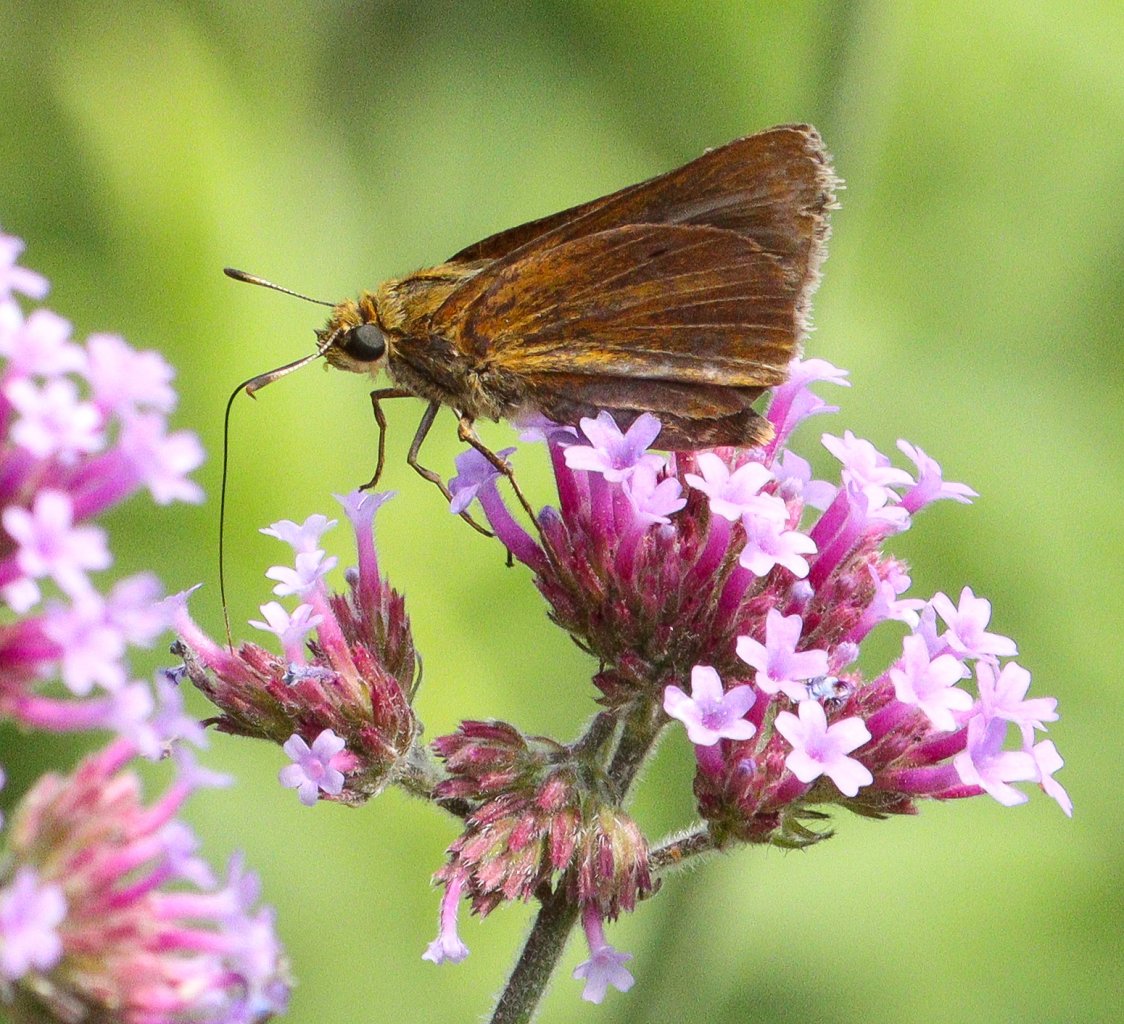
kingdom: Animalia
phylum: Arthropoda
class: Insecta
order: Lepidoptera
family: Hesperiidae
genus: Euphyes
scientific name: Euphyes dion
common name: Dion Skipper
